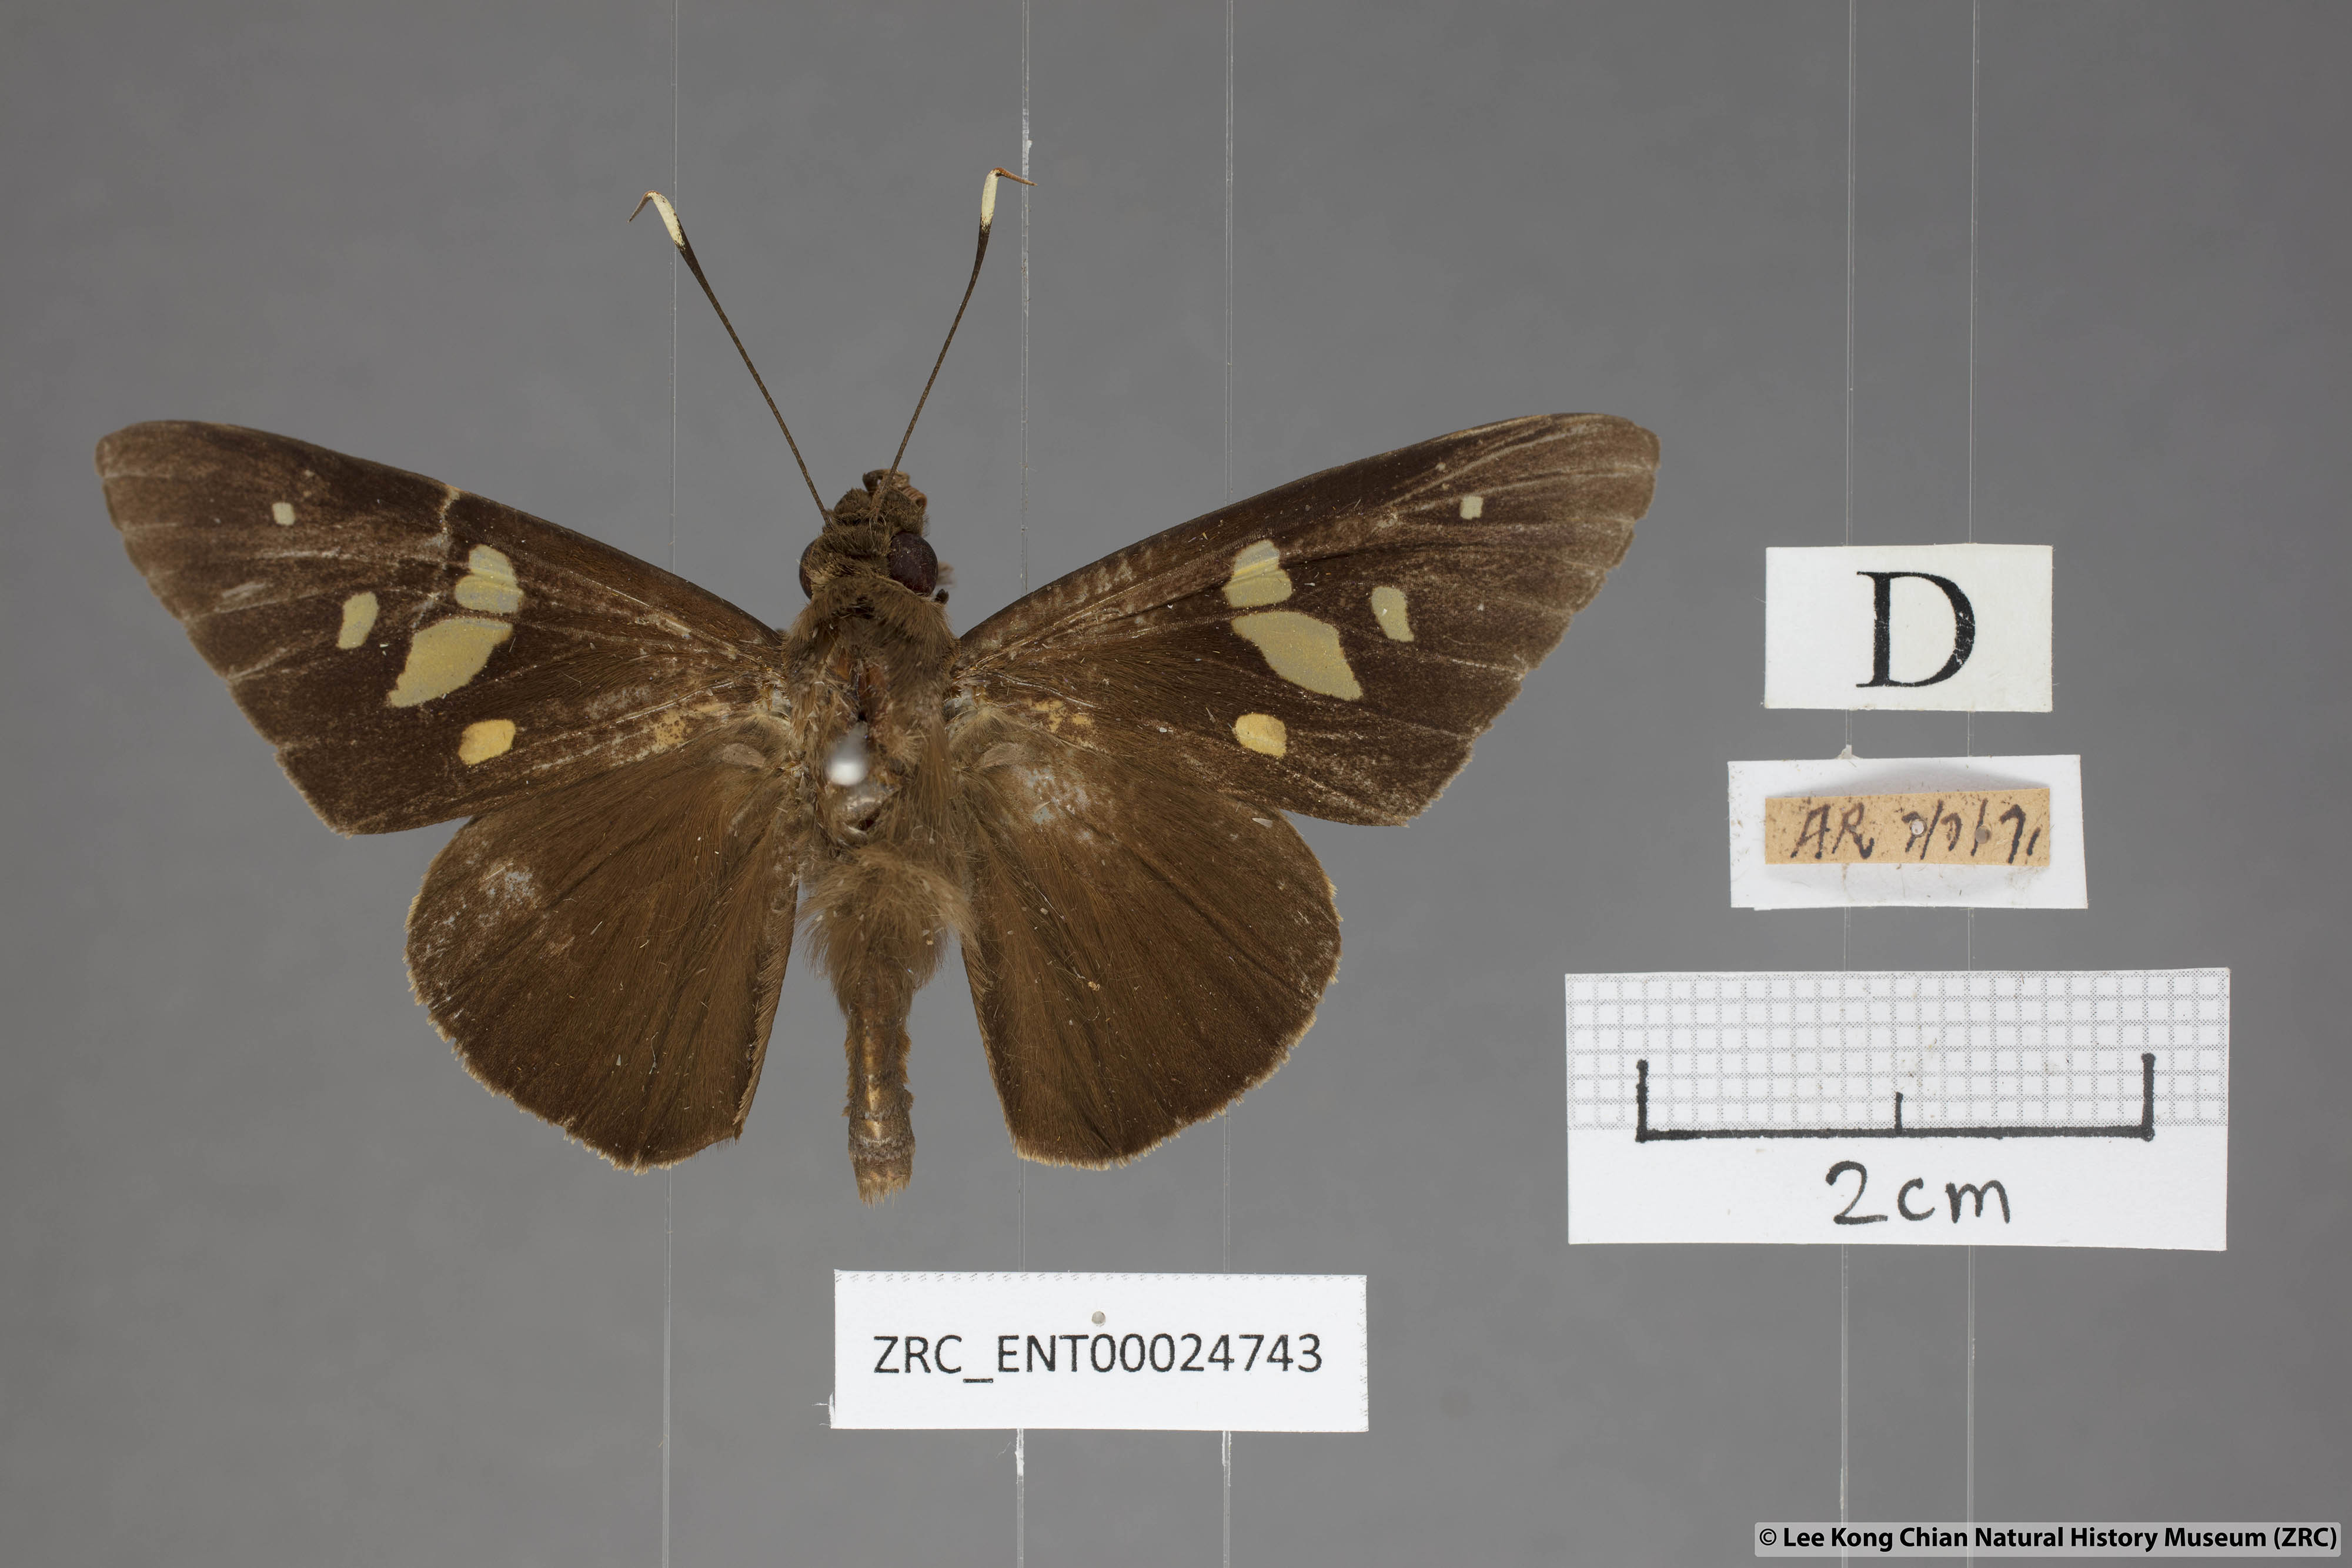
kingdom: Animalia
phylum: Arthropoda
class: Insecta
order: Lepidoptera
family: Hesperiidae
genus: Hidari
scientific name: Hidari doesoena
